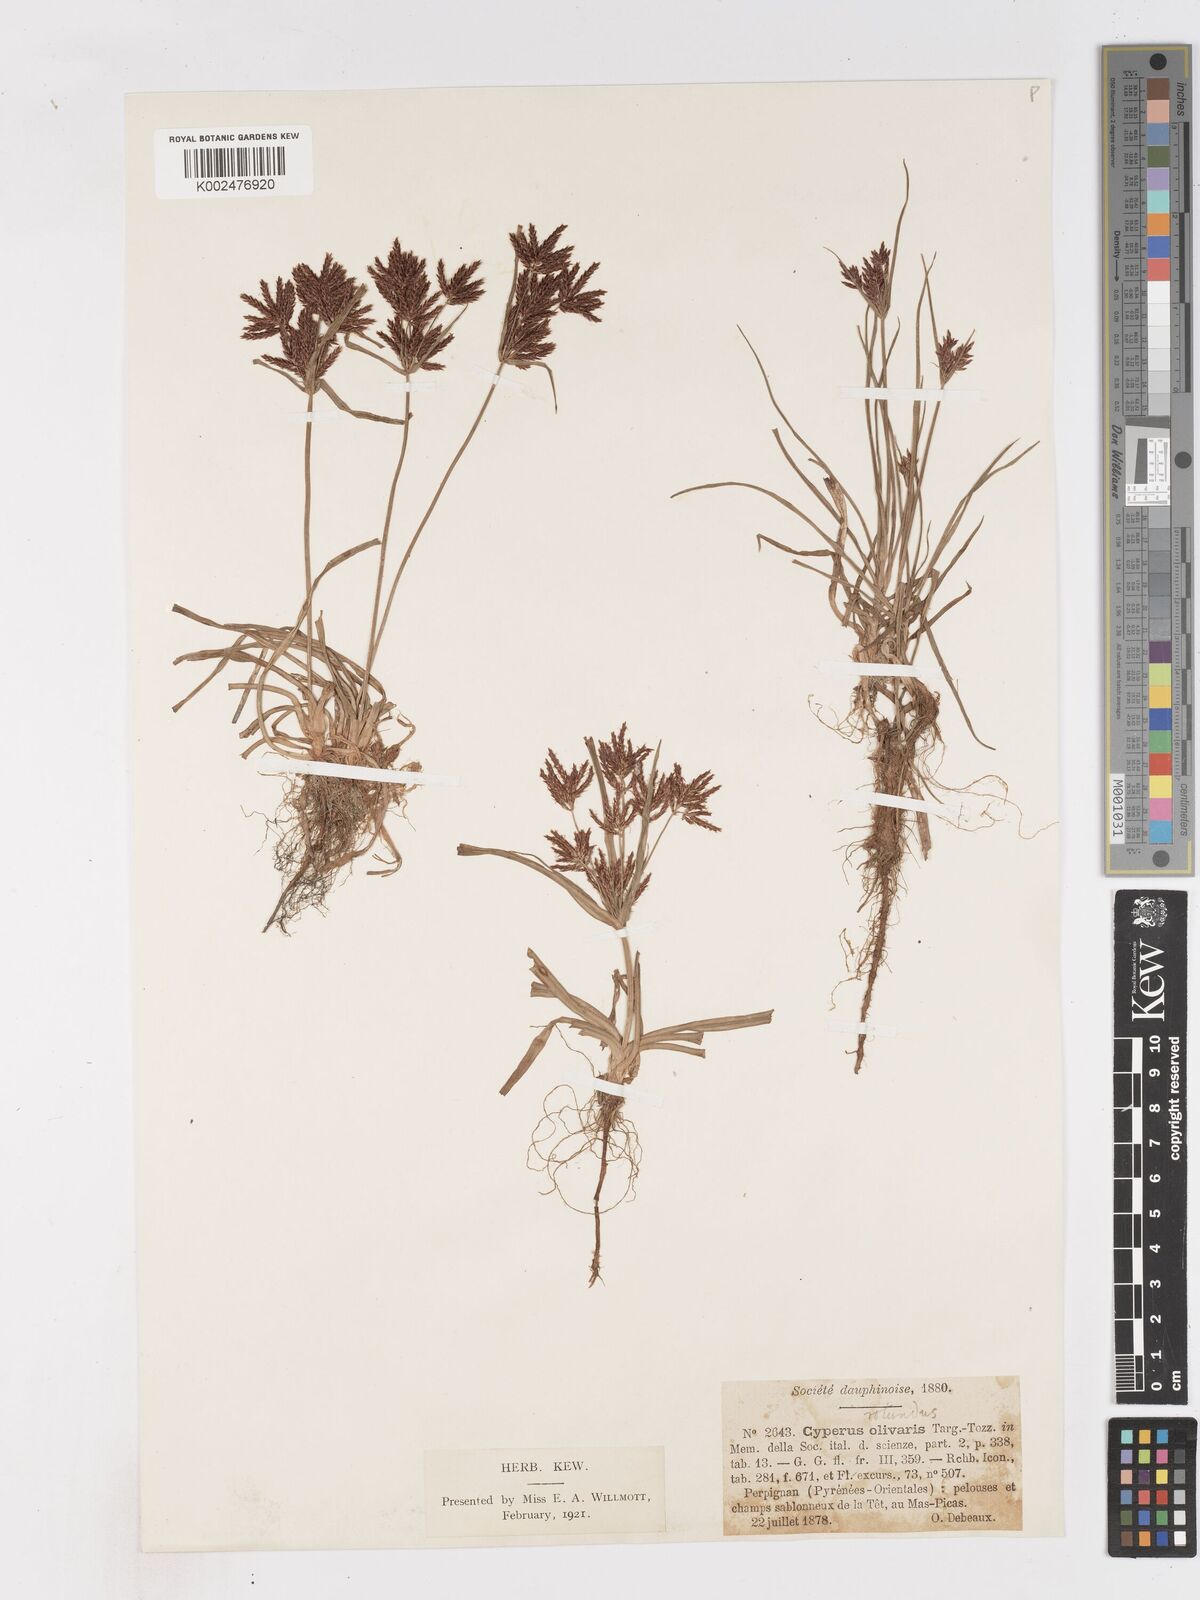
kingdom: Plantae
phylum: Tracheophyta
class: Liliopsida
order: Poales
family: Cyperaceae
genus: Cyperus
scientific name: Cyperus rotundus
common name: Nutgrass
